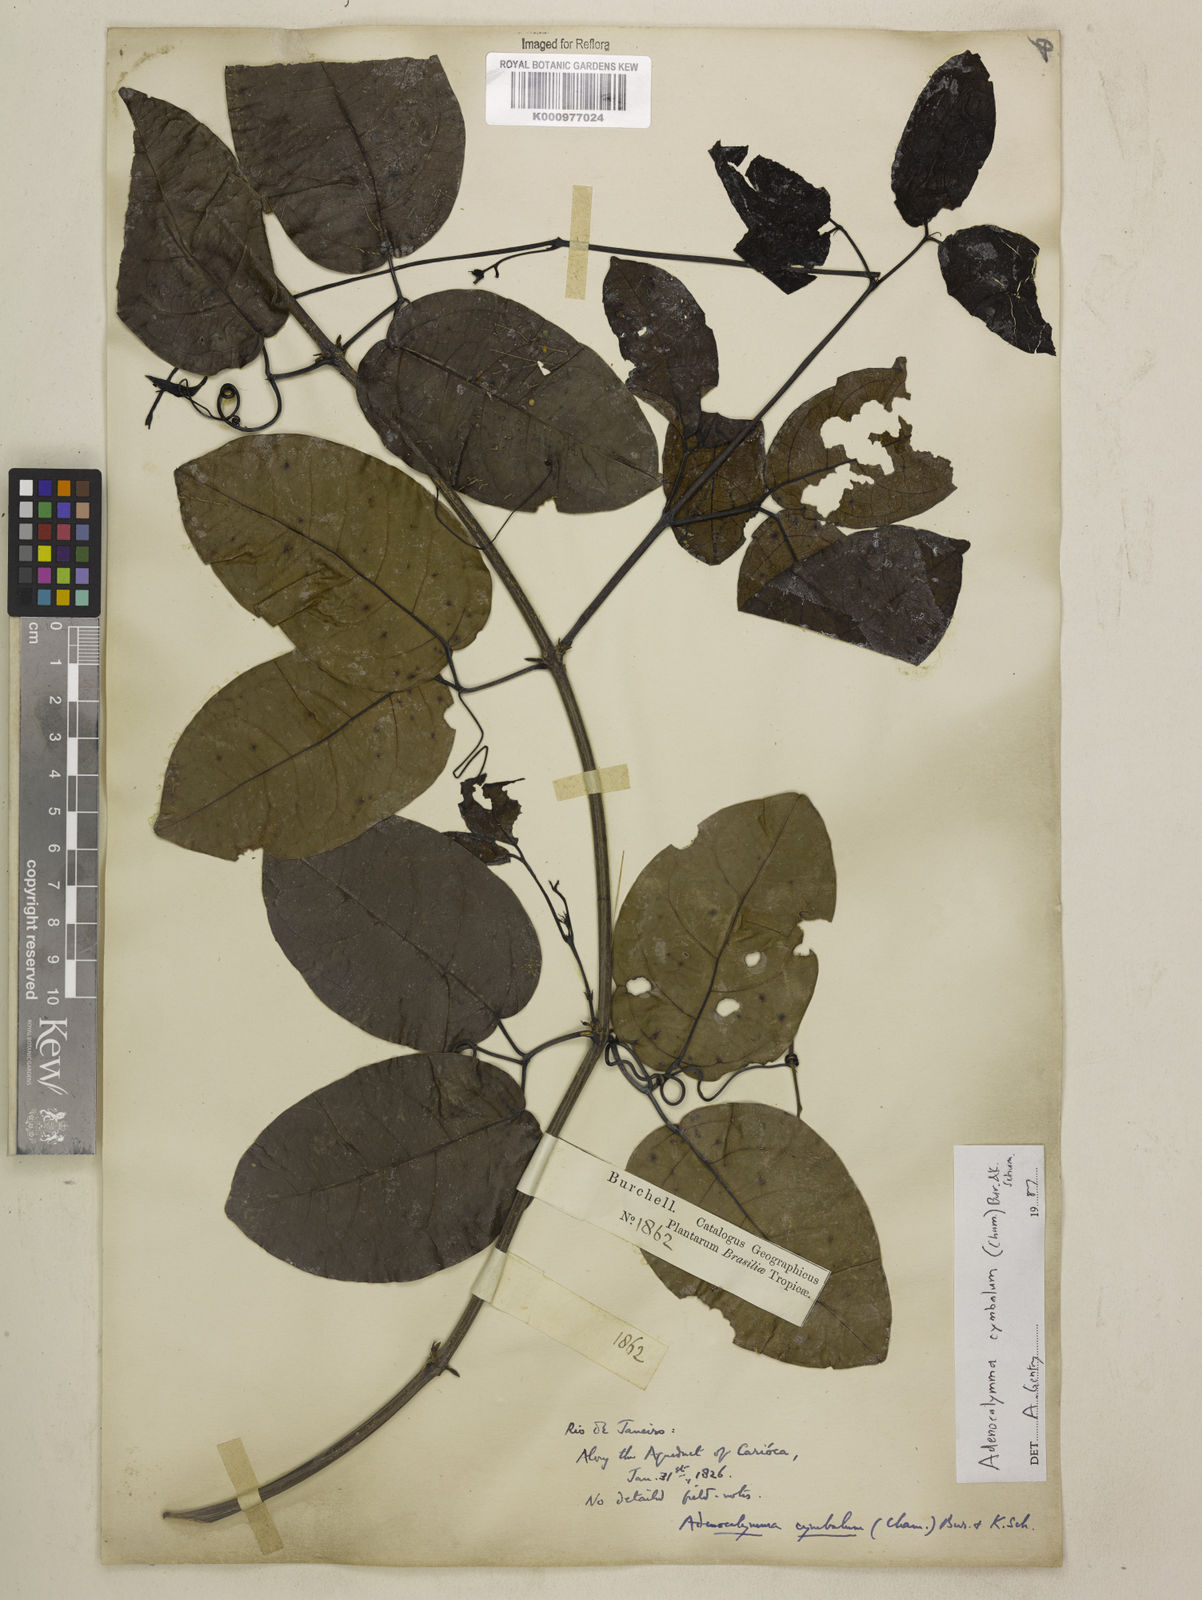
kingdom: Plantae
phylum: Tracheophyta
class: Magnoliopsida
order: Lamiales
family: Bignoniaceae
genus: Adenocalymma
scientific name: Adenocalymma cymbalum
